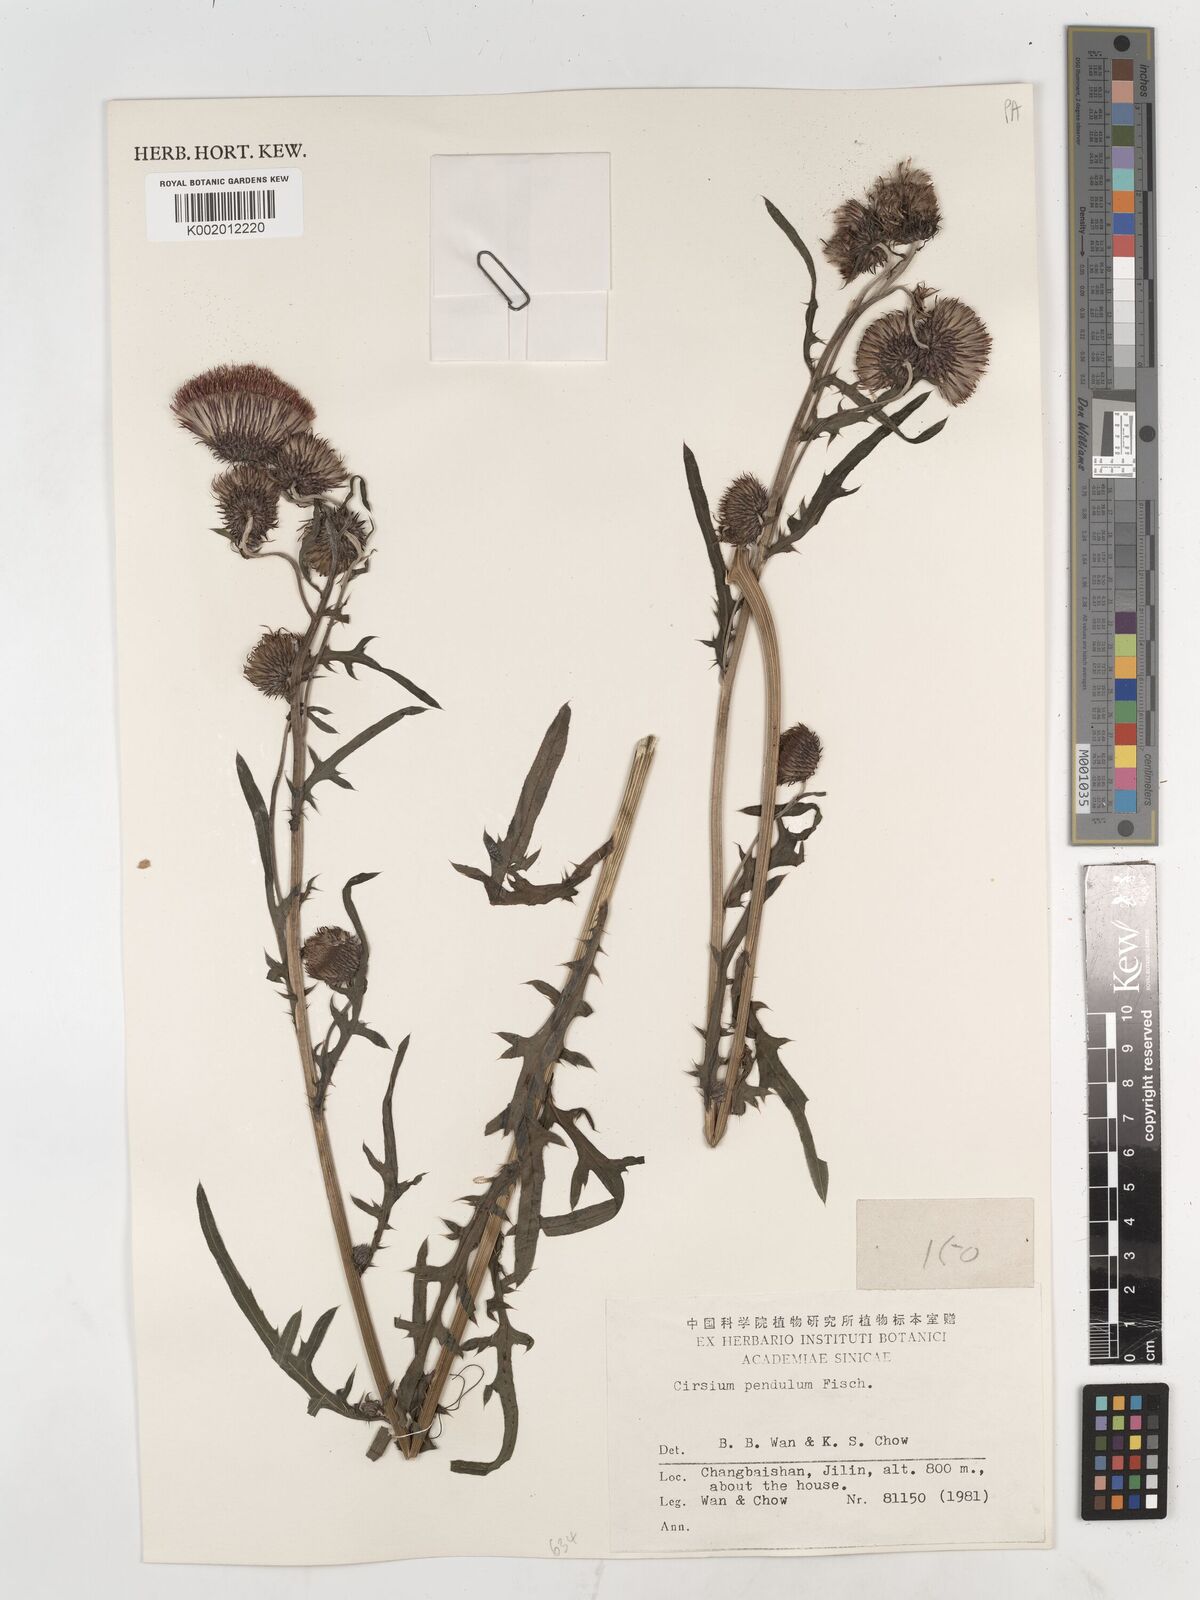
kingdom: Plantae
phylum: Tracheophyta
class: Magnoliopsida
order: Asterales
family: Asteraceae
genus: Cirsium
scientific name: Cirsium pendulum
